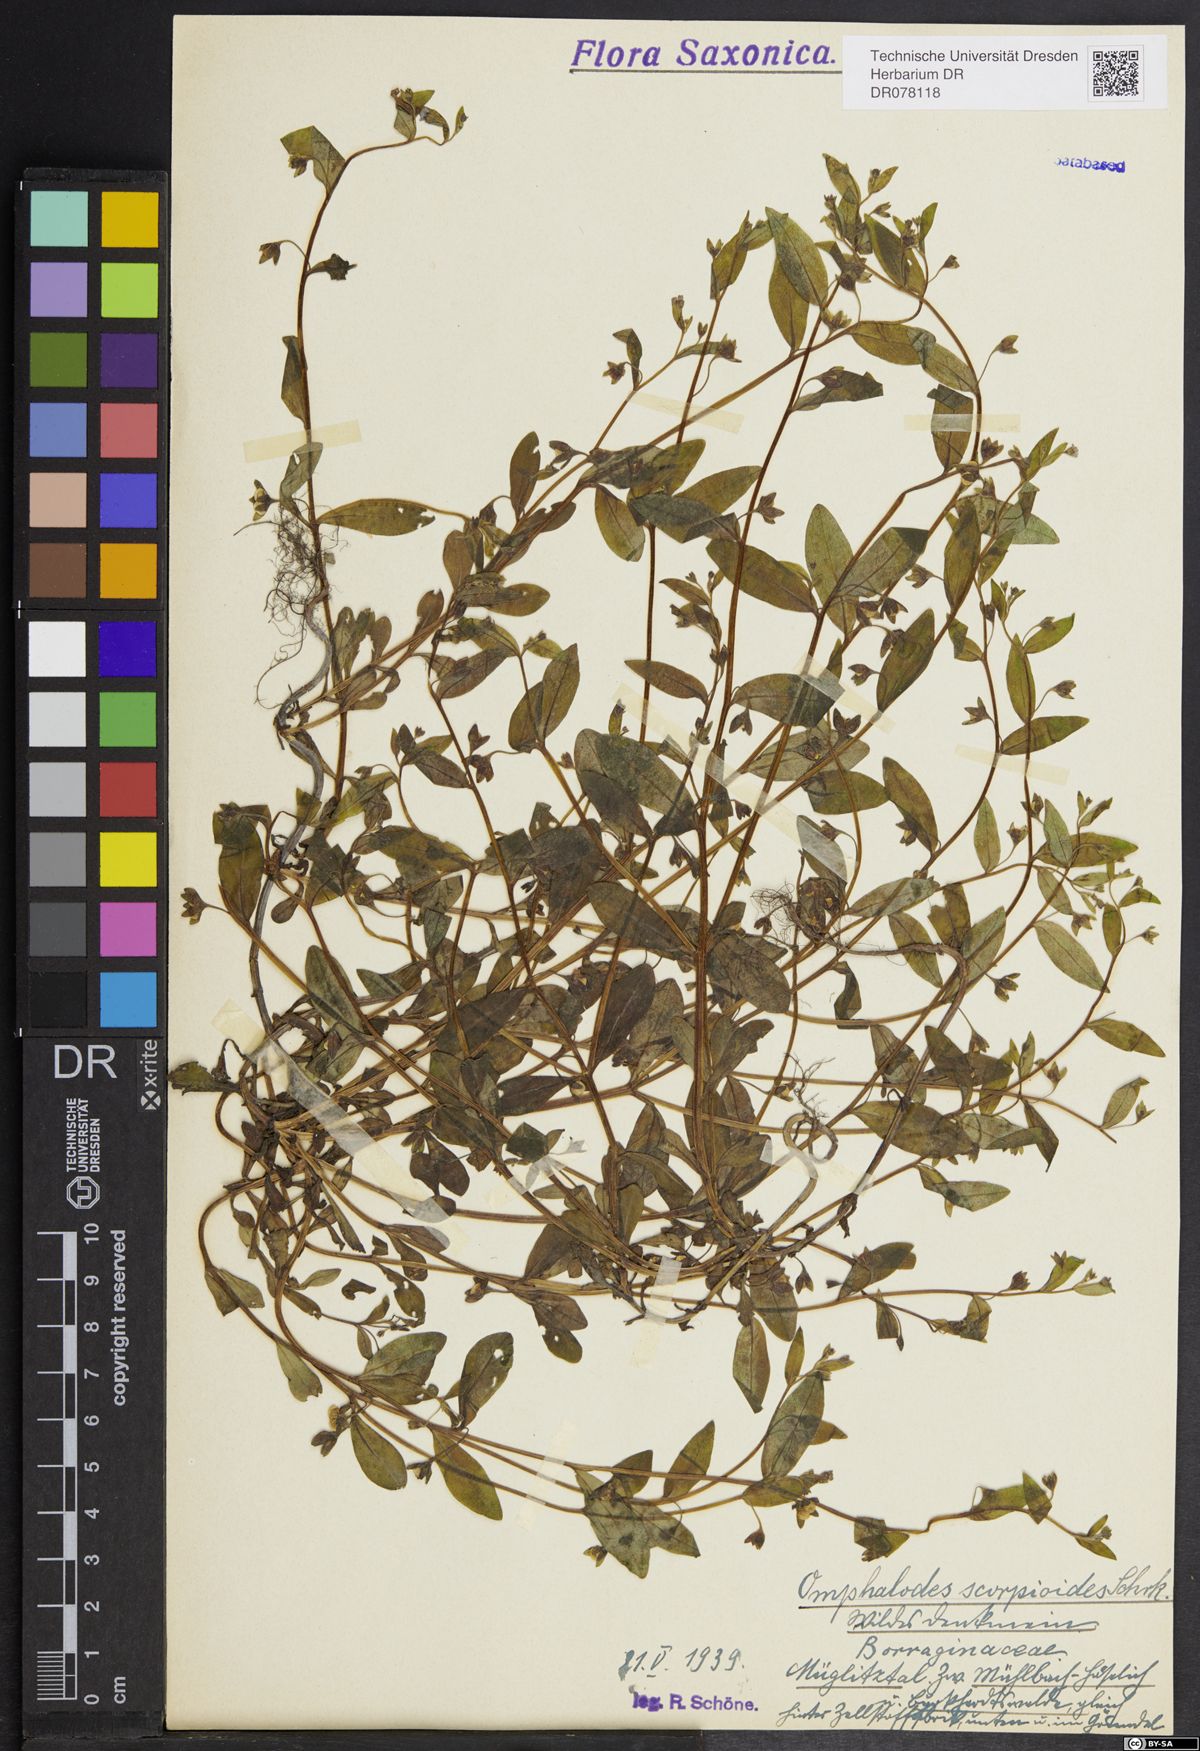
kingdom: Plantae
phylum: Tracheophyta
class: Magnoliopsida
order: Boraginales
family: Boraginaceae
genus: Memoremea
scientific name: Memoremea scorpioides
